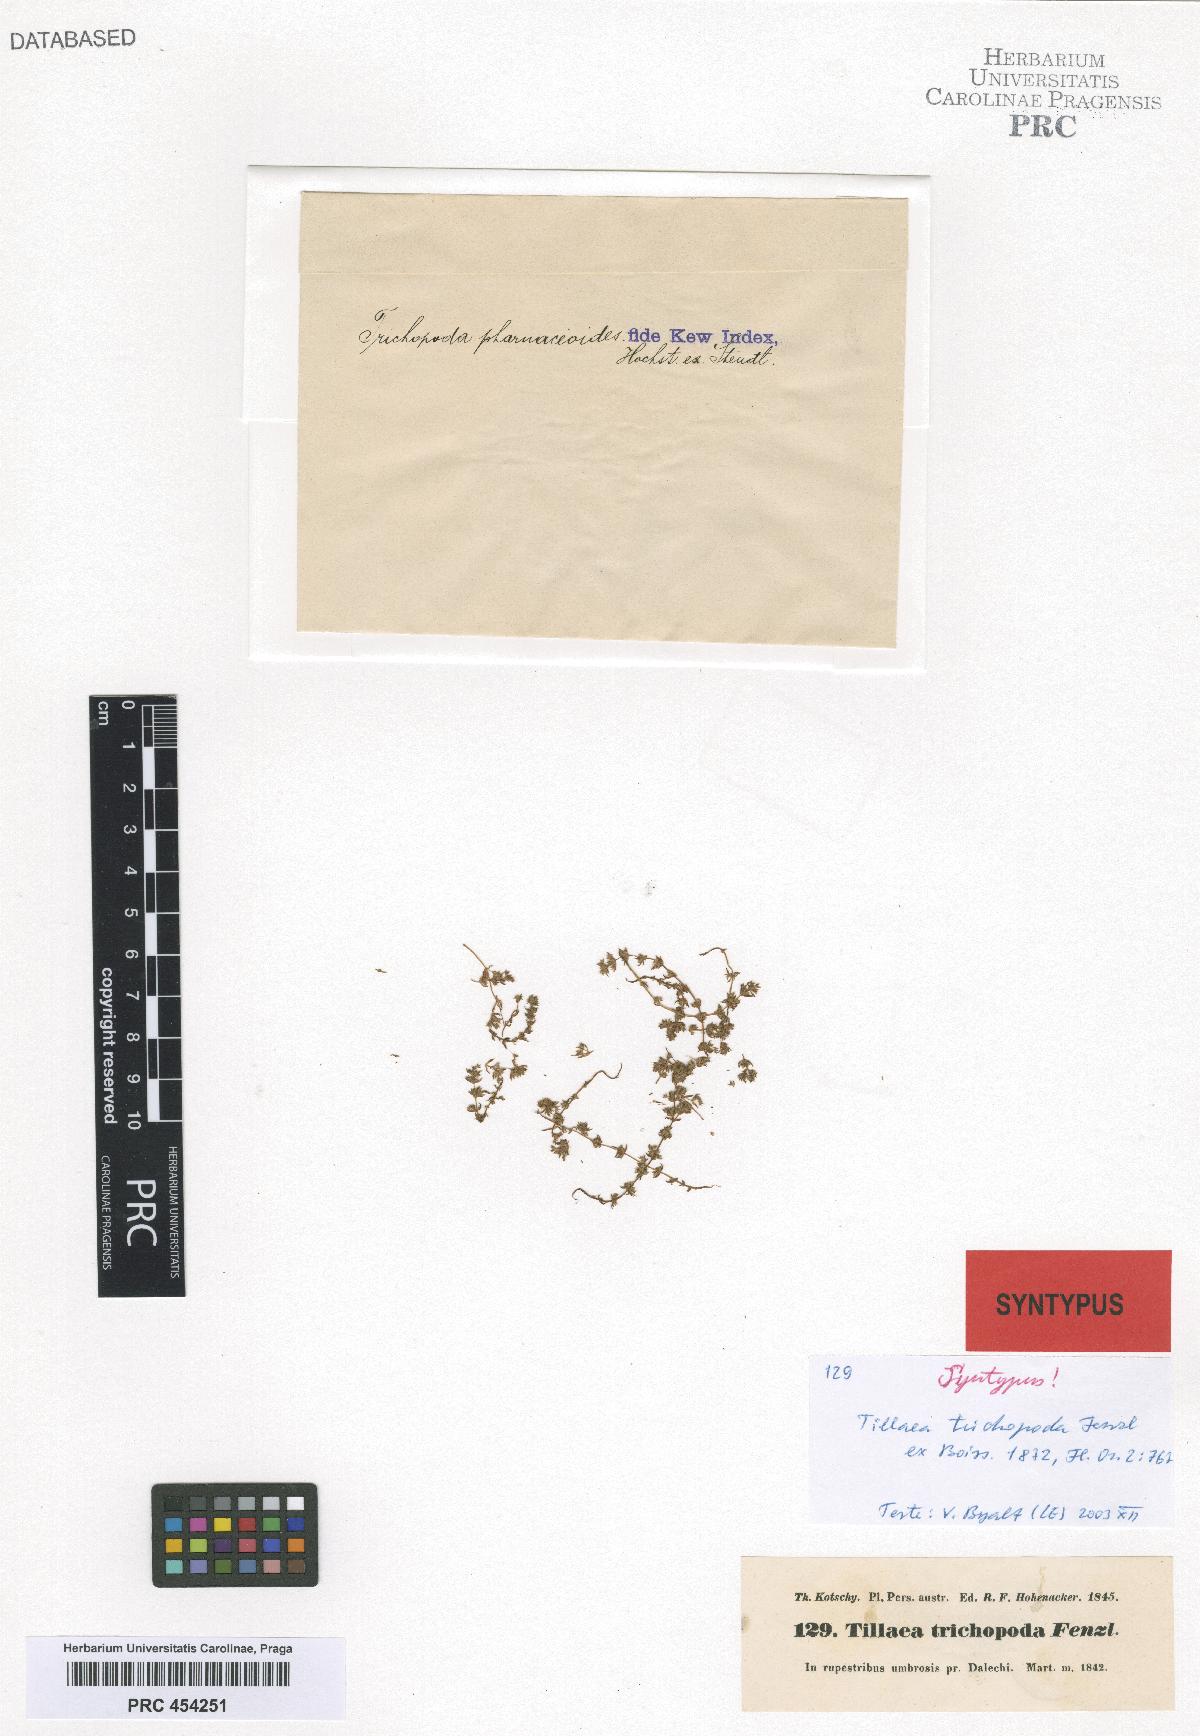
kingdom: Plantae
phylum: Tracheophyta
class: Magnoliopsida
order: Saxifragales
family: Crassulaceae
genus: Crassula
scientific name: Crassula alata
